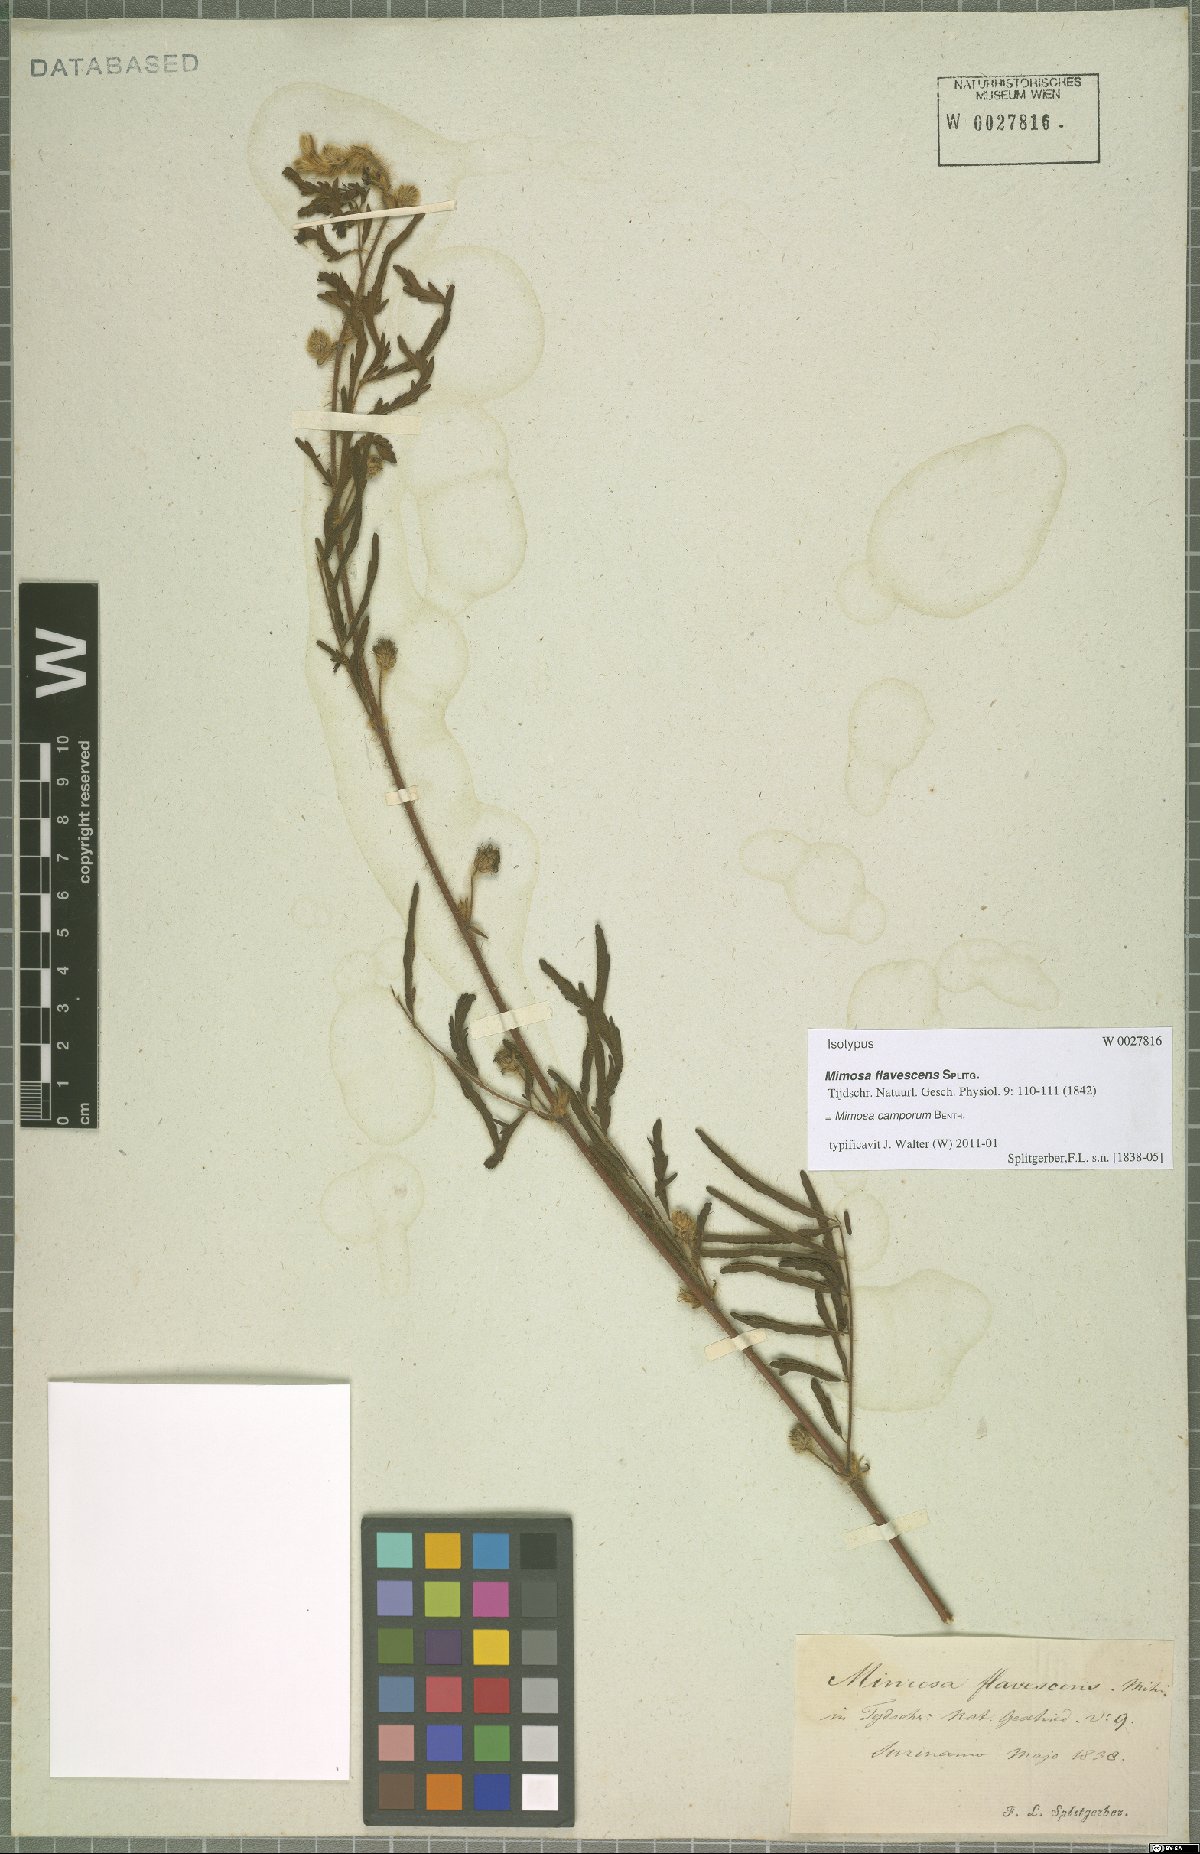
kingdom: Plantae
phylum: Tracheophyta
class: Magnoliopsida
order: Fabales
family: Fabaceae
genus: Mimosa
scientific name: Mimosa camporum
